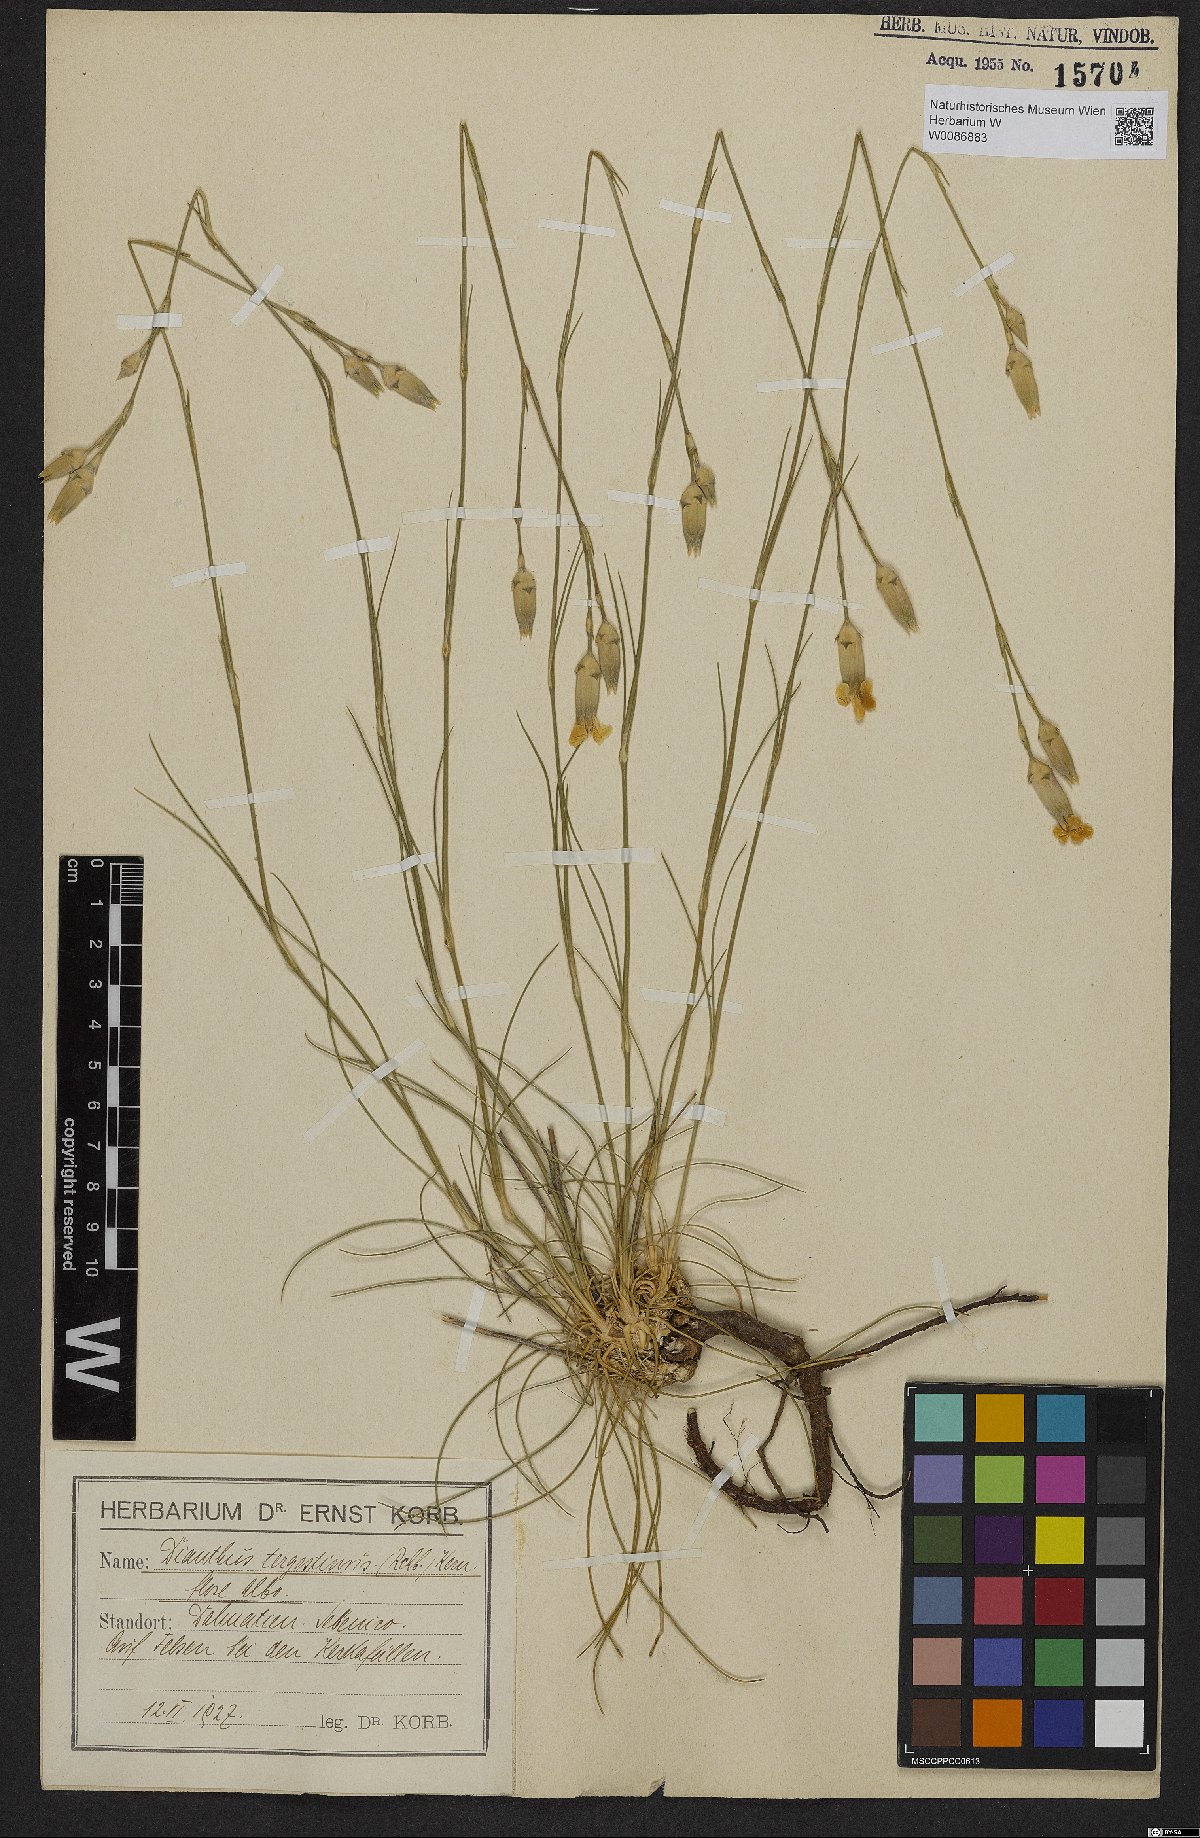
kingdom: Plantae
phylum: Tracheophyta
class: Magnoliopsida
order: Caryophyllales
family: Caryophyllaceae
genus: Dianthus
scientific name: Dianthus sylvestris
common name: Wood pink
